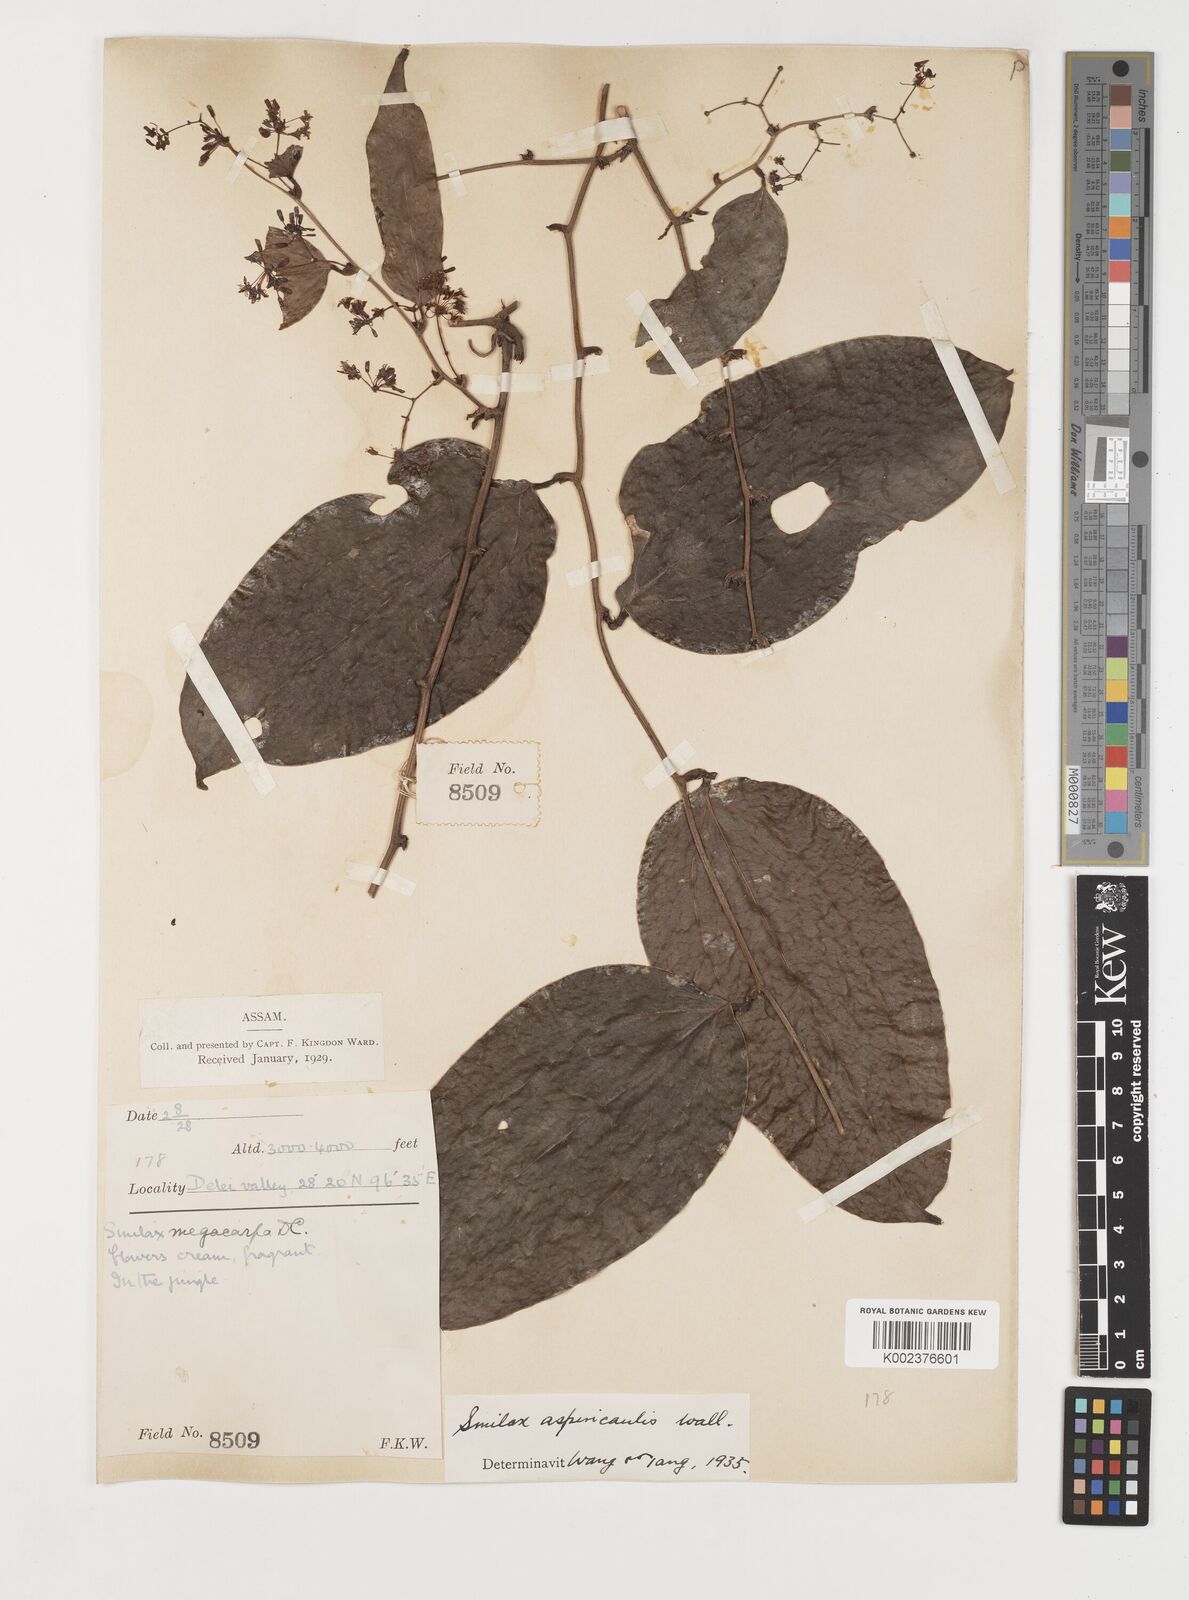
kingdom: Plantae
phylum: Tracheophyta
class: Liliopsida
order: Liliales
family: Smilacaceae
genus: Smilax
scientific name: Smilax aspericaulis
